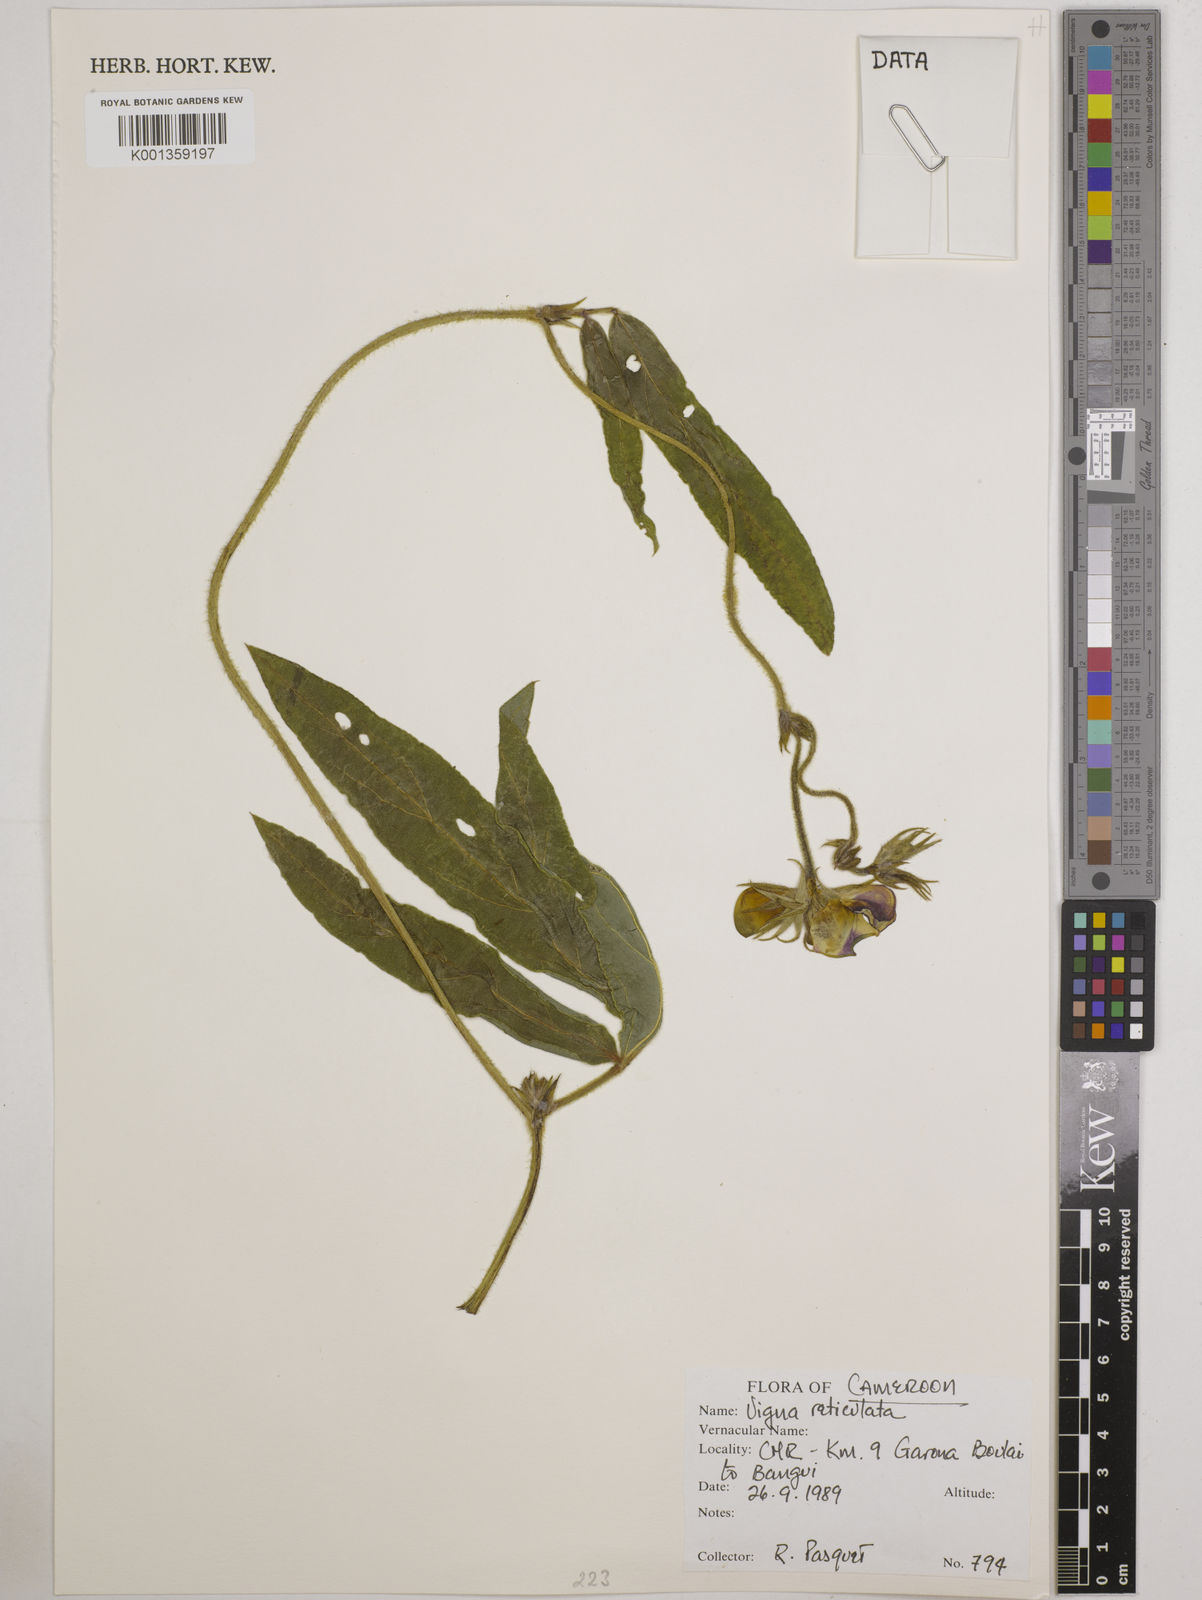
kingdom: Plantae
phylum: Tracheophyta
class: Magnoliopsida
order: Fabales
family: Fabaceae
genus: Vigna
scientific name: Vigna reticulata
